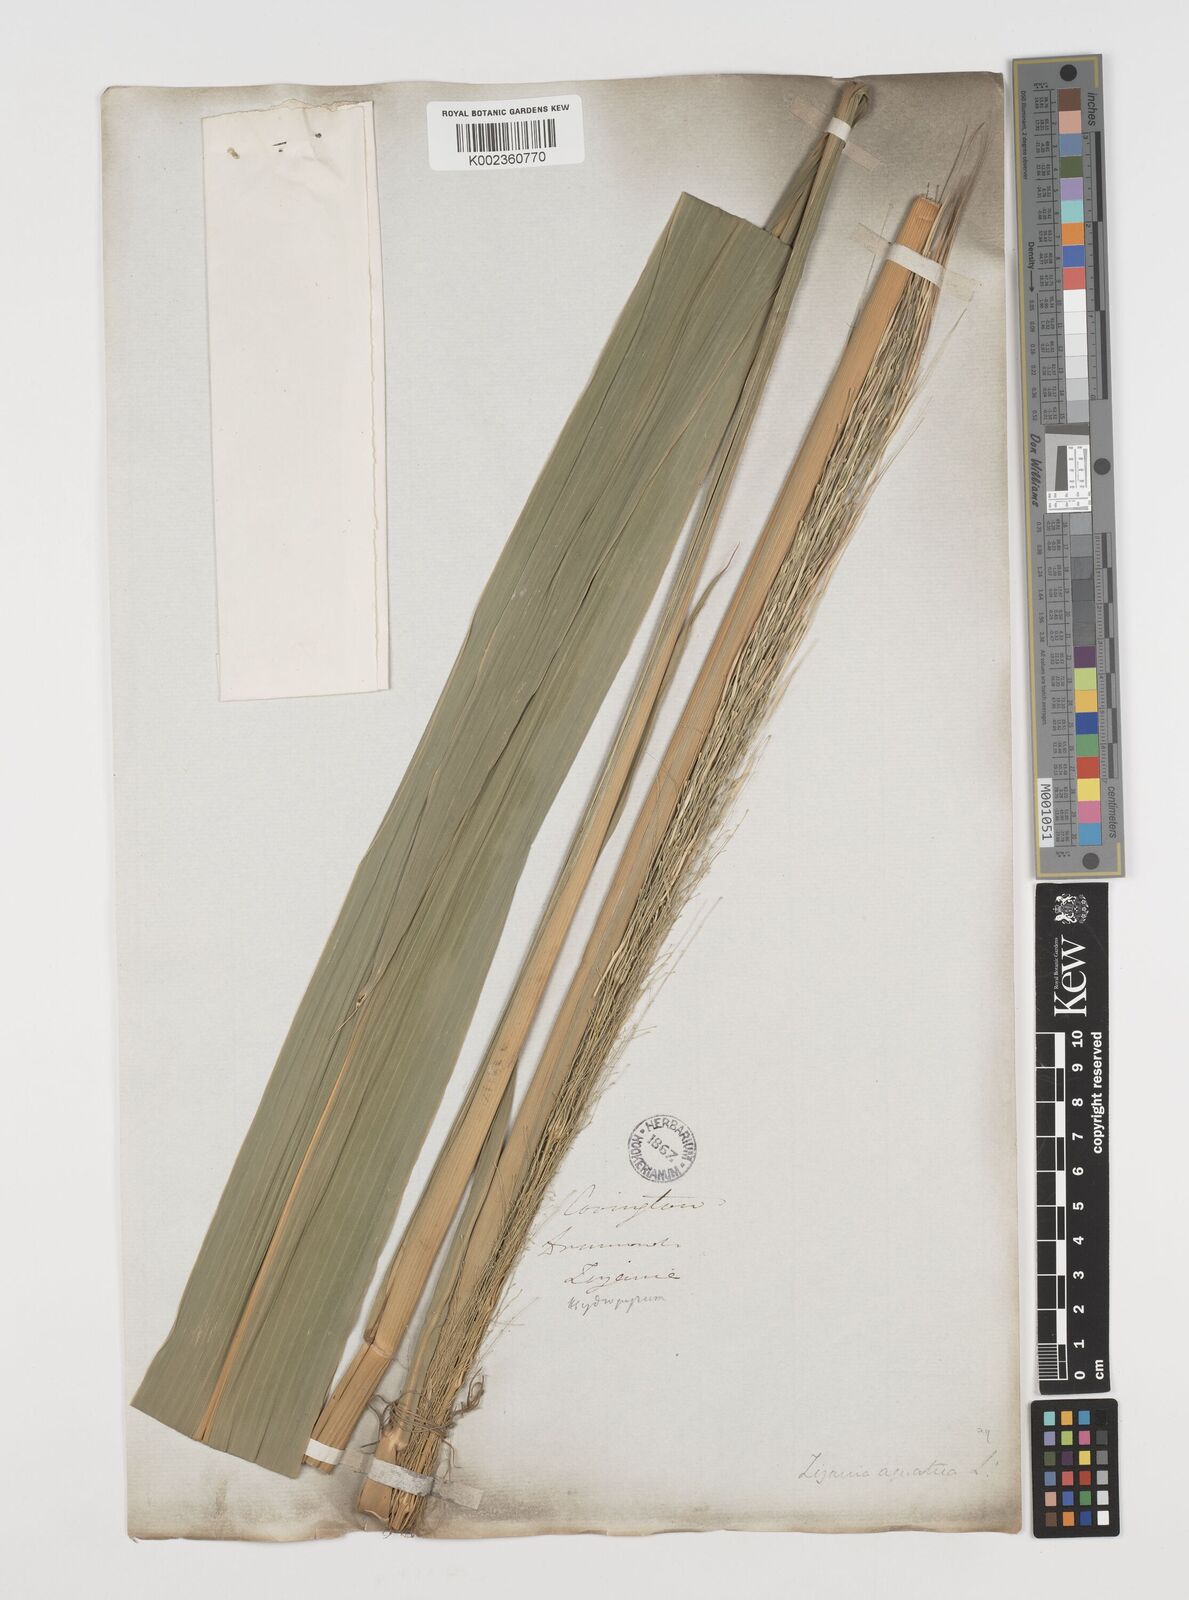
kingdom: Plantae
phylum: Tracheophyta
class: Liliopsida
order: Poales
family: Poaceae
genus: Zizania
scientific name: Zizania aquatica
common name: Annual wildrice
